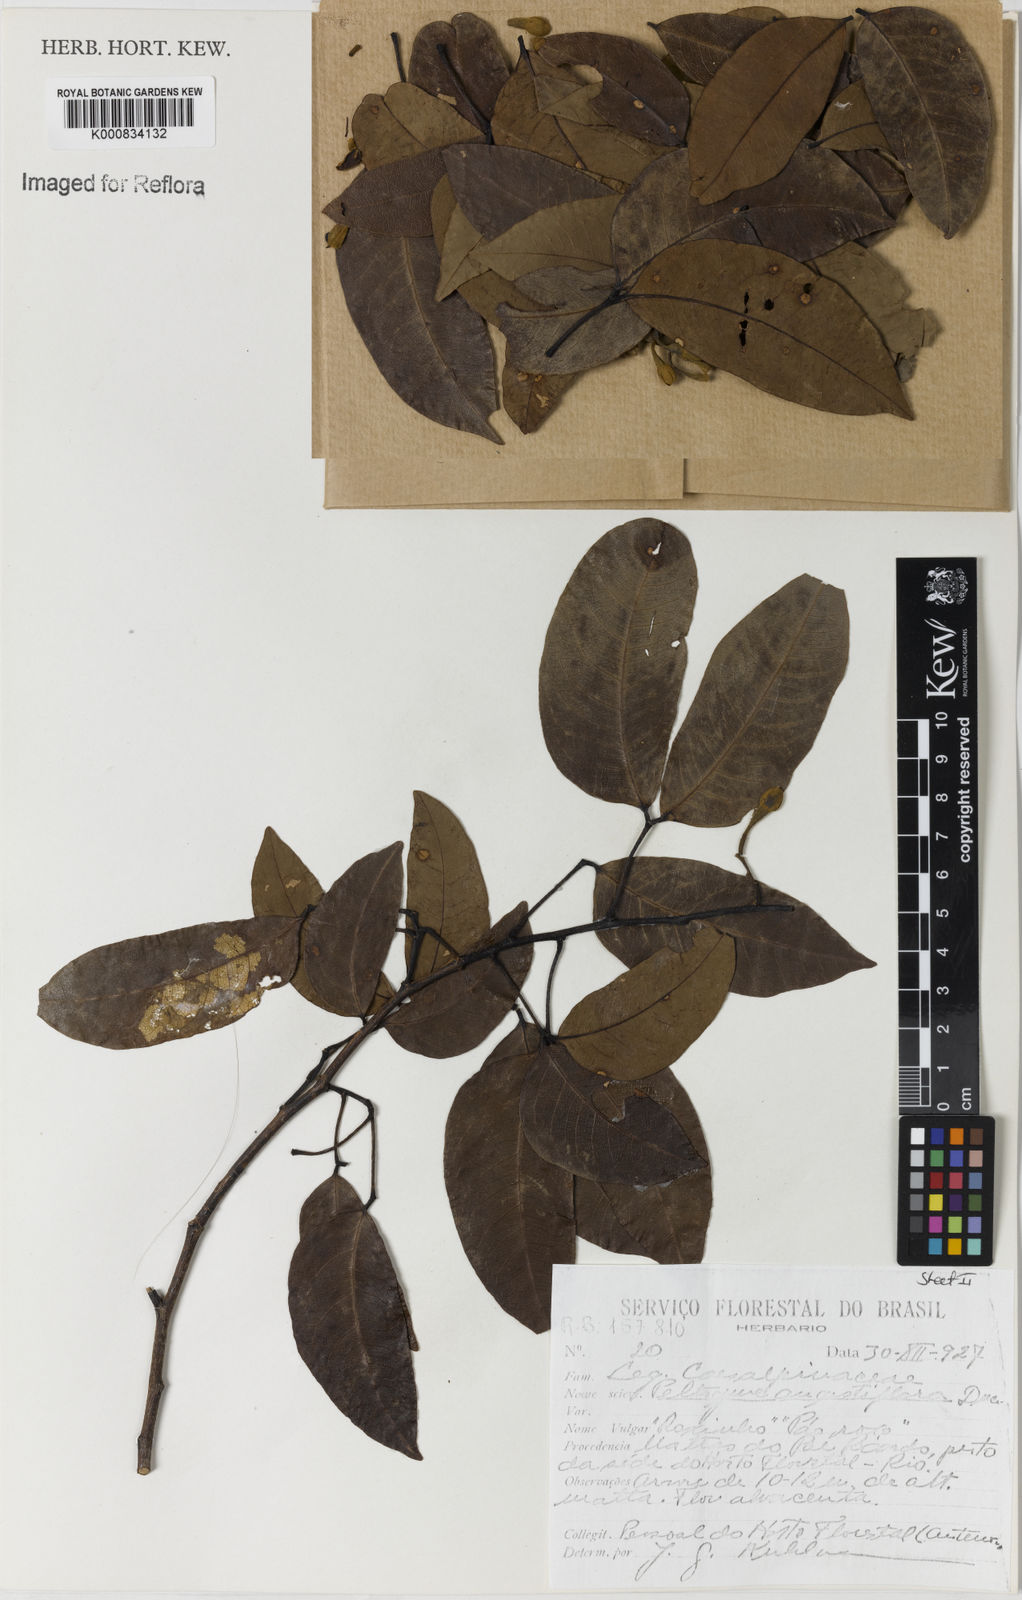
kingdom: Plantae
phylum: Tracheophyta
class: Magnoliopsida
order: Fabales
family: Fabaceae
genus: Peltogyne
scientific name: Peltogyne angustiflora
